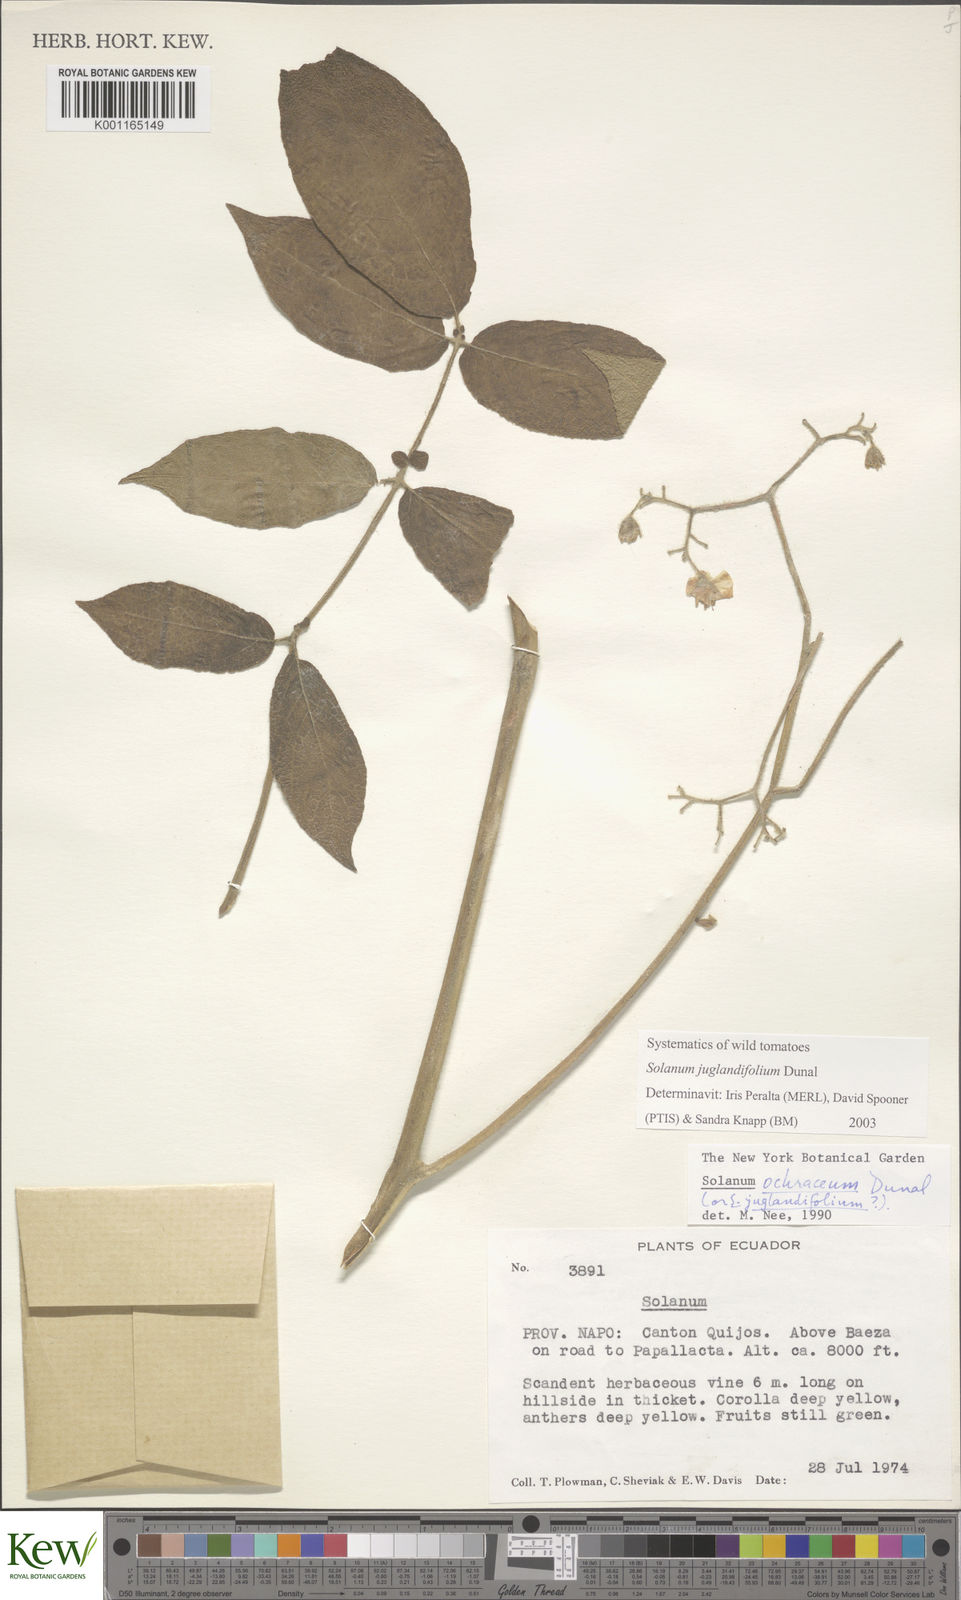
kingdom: Plantae
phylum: Tracheophyta
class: Magnoliopsida
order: Solanales
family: Solanaceae
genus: Solanum
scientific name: Solanum ochranthum
